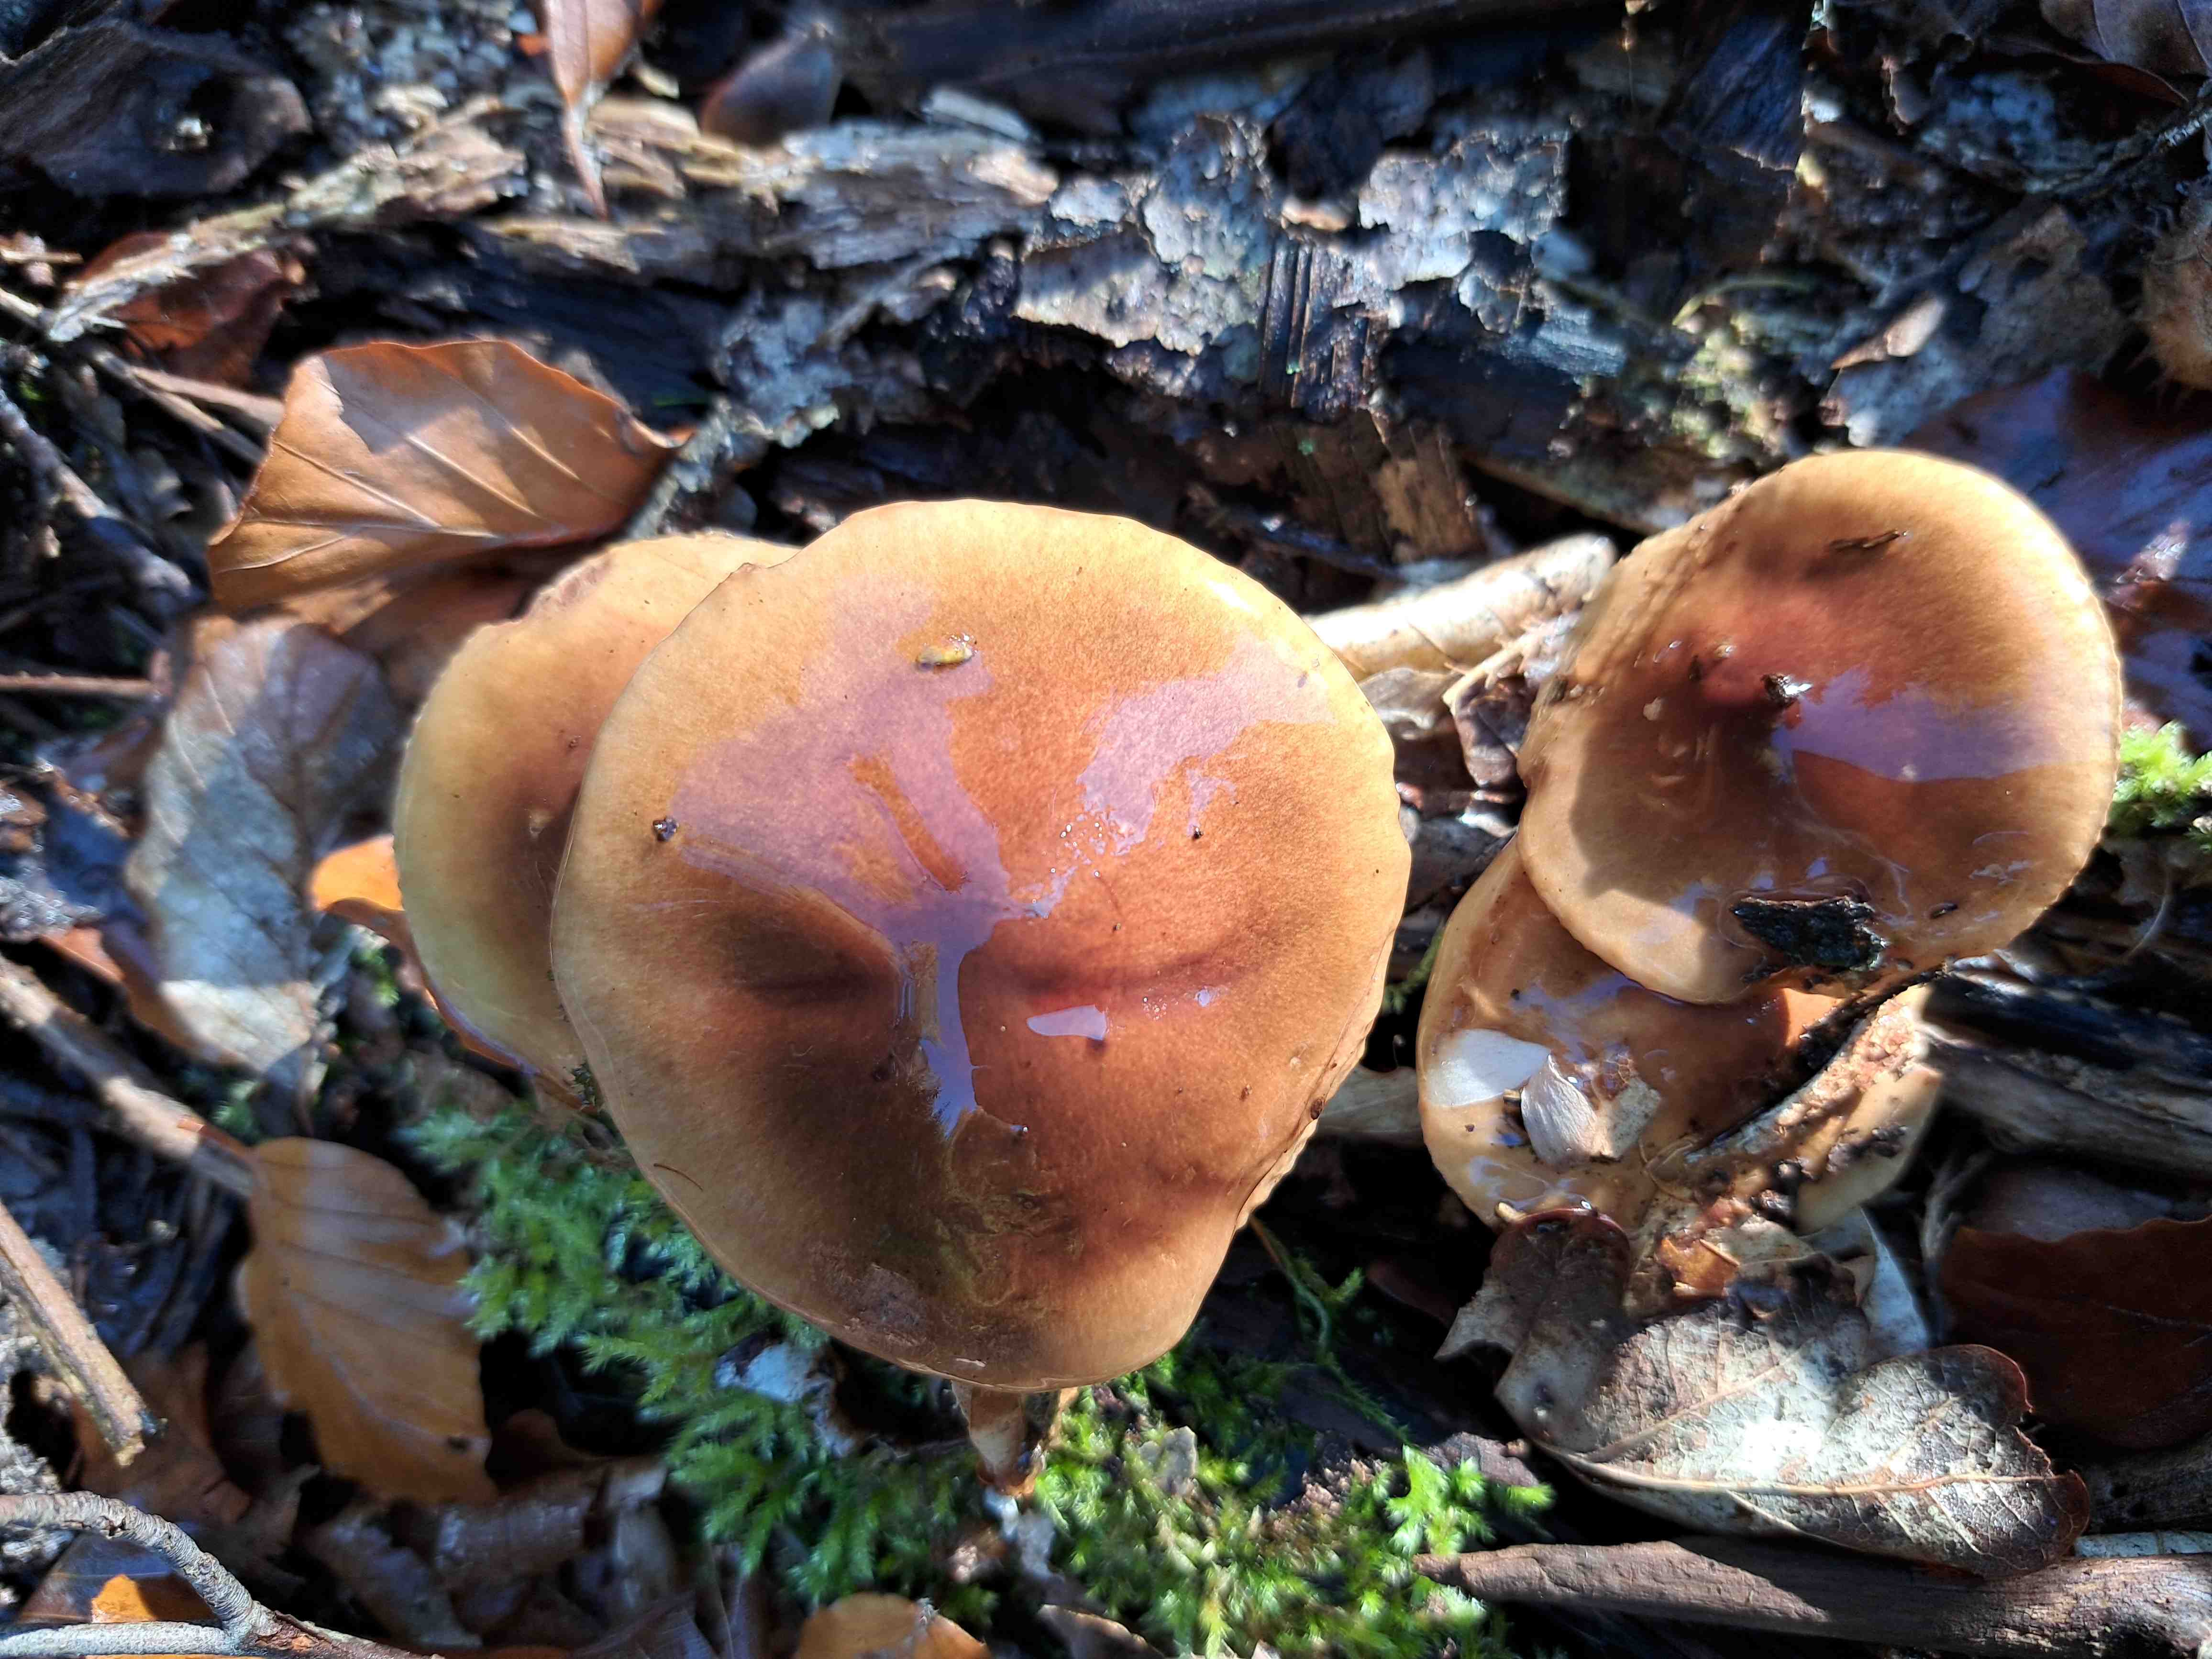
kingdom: Fungi
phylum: Basidiomycota
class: Agaricomycetes
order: Agaricales
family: Tricholomataceae
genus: Tricholoma
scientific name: Tricholoma ustale
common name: sveden ridderhat
